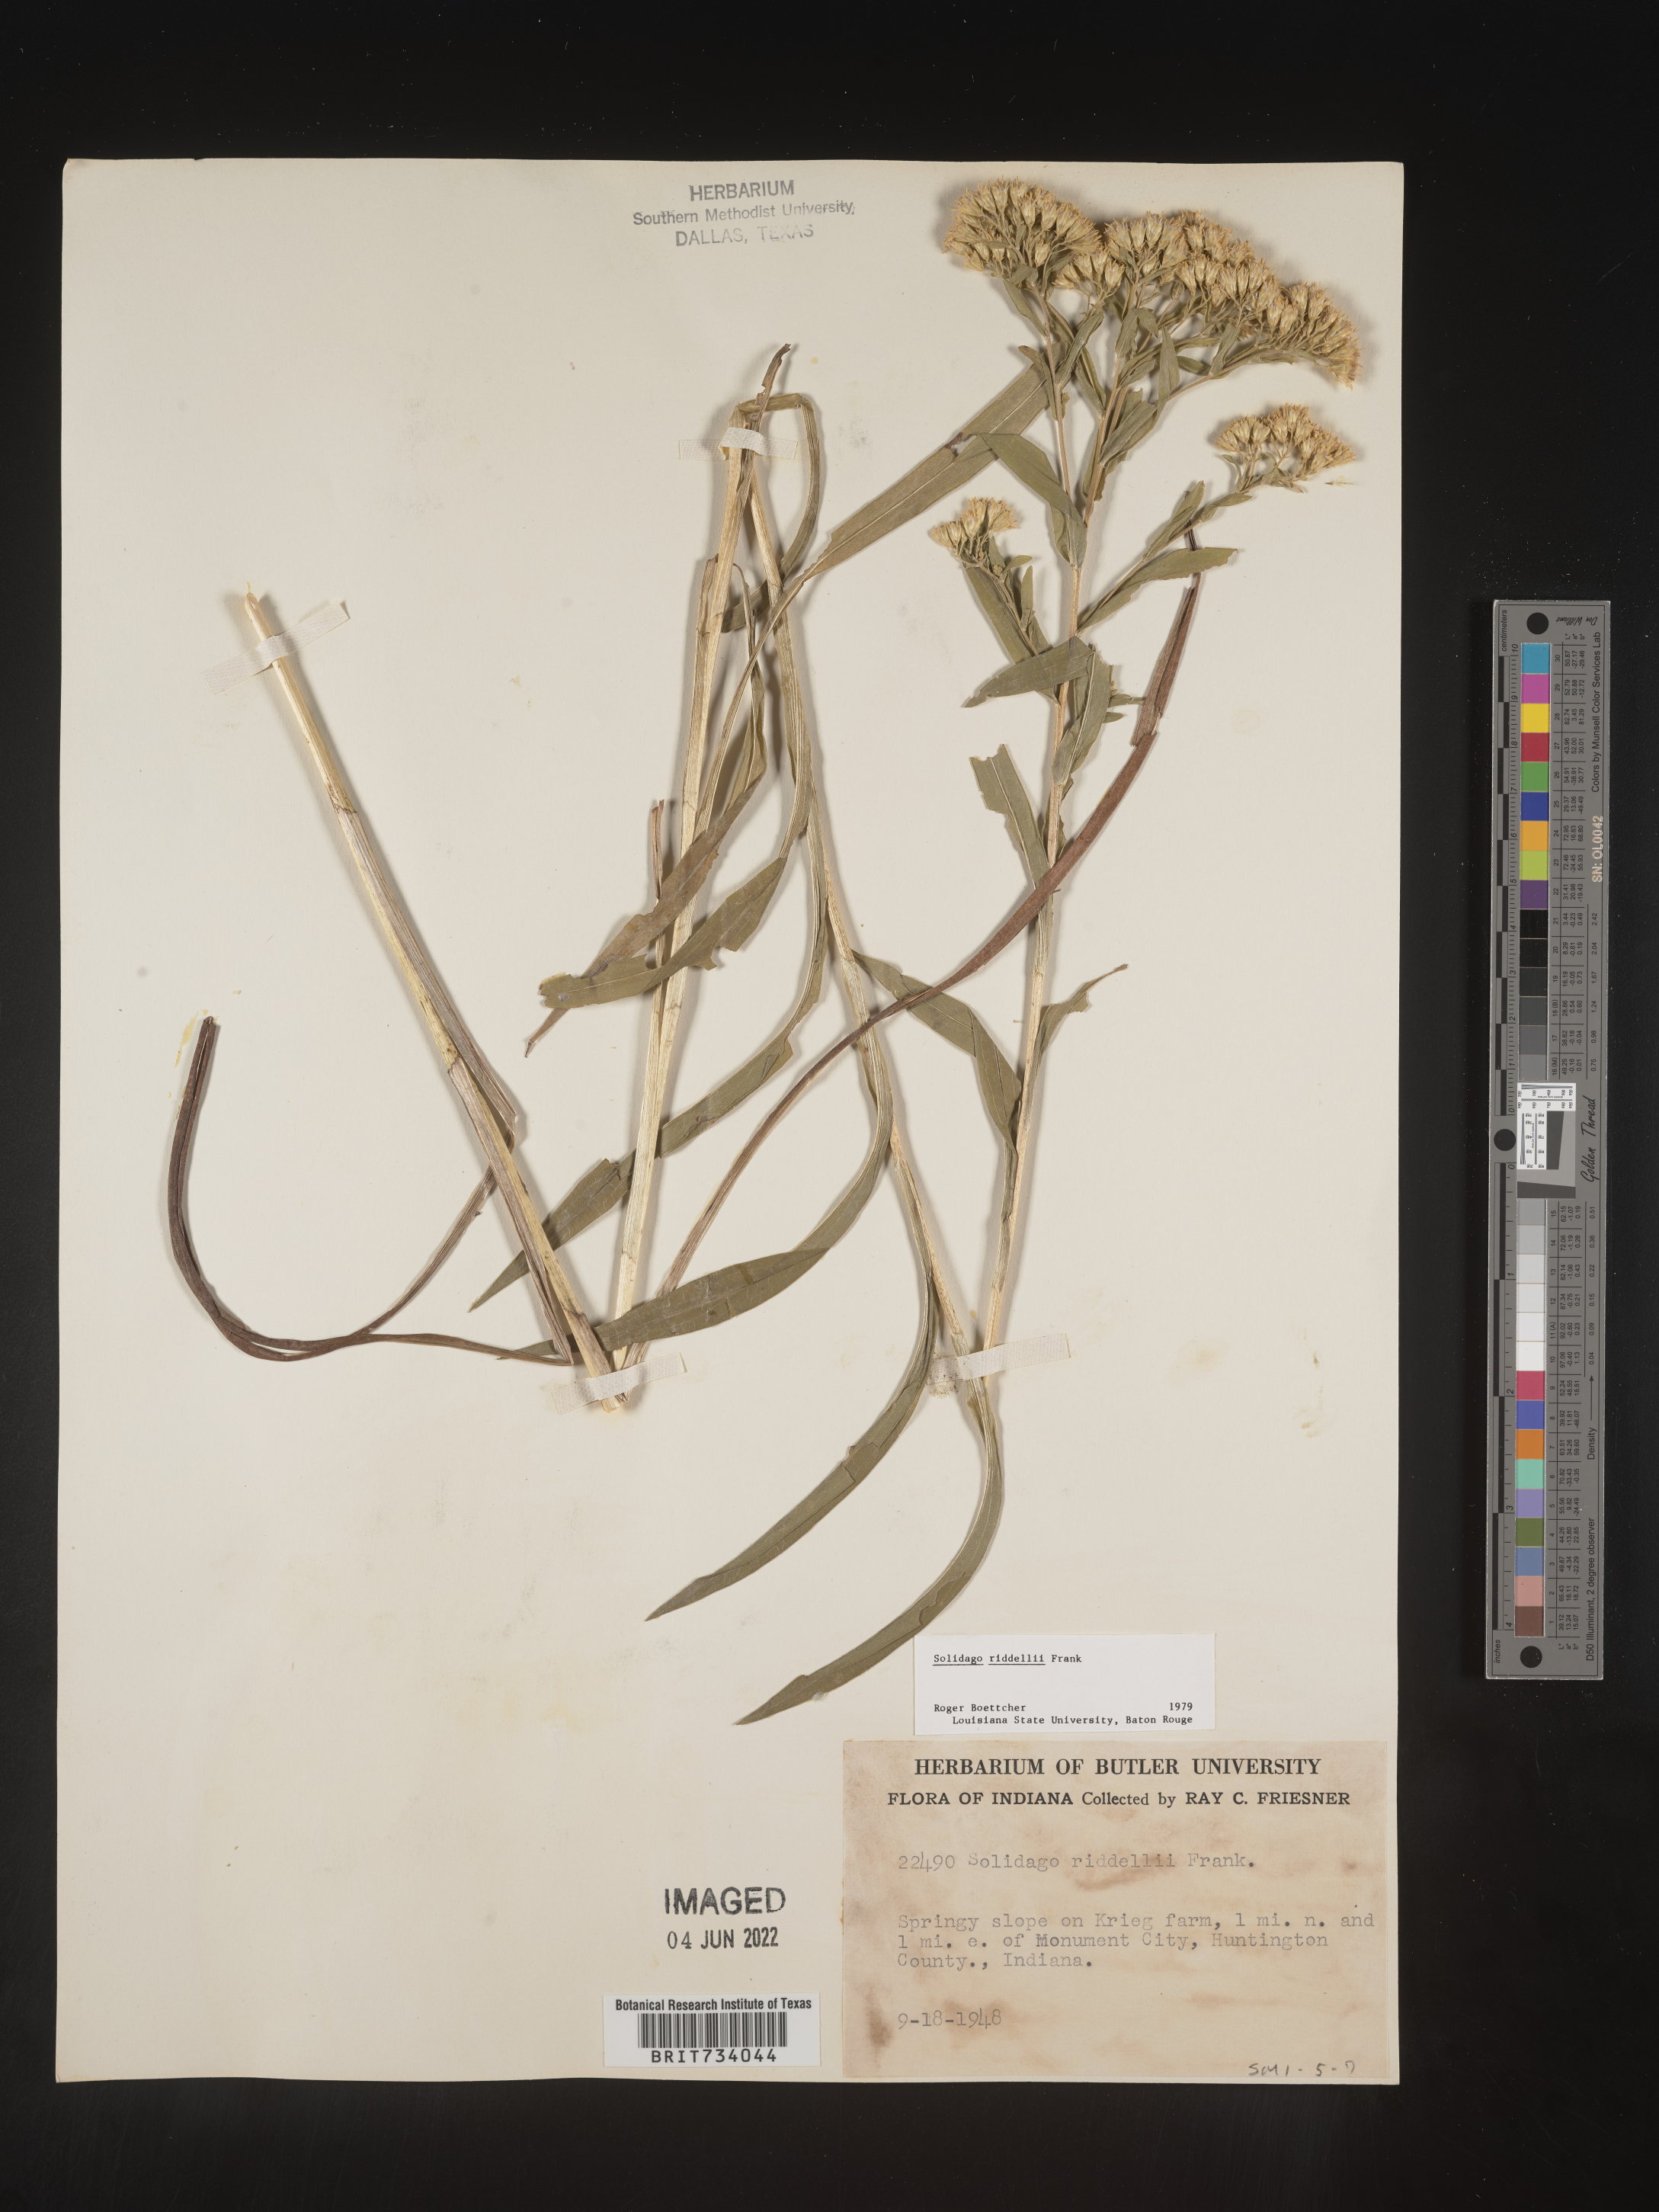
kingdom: Plantae
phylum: Tracheophyta
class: Magnoliopsida
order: Asterales
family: Asteraceae
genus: Solidago
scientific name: Solidago riddellii
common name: Riddell's goldenrod
